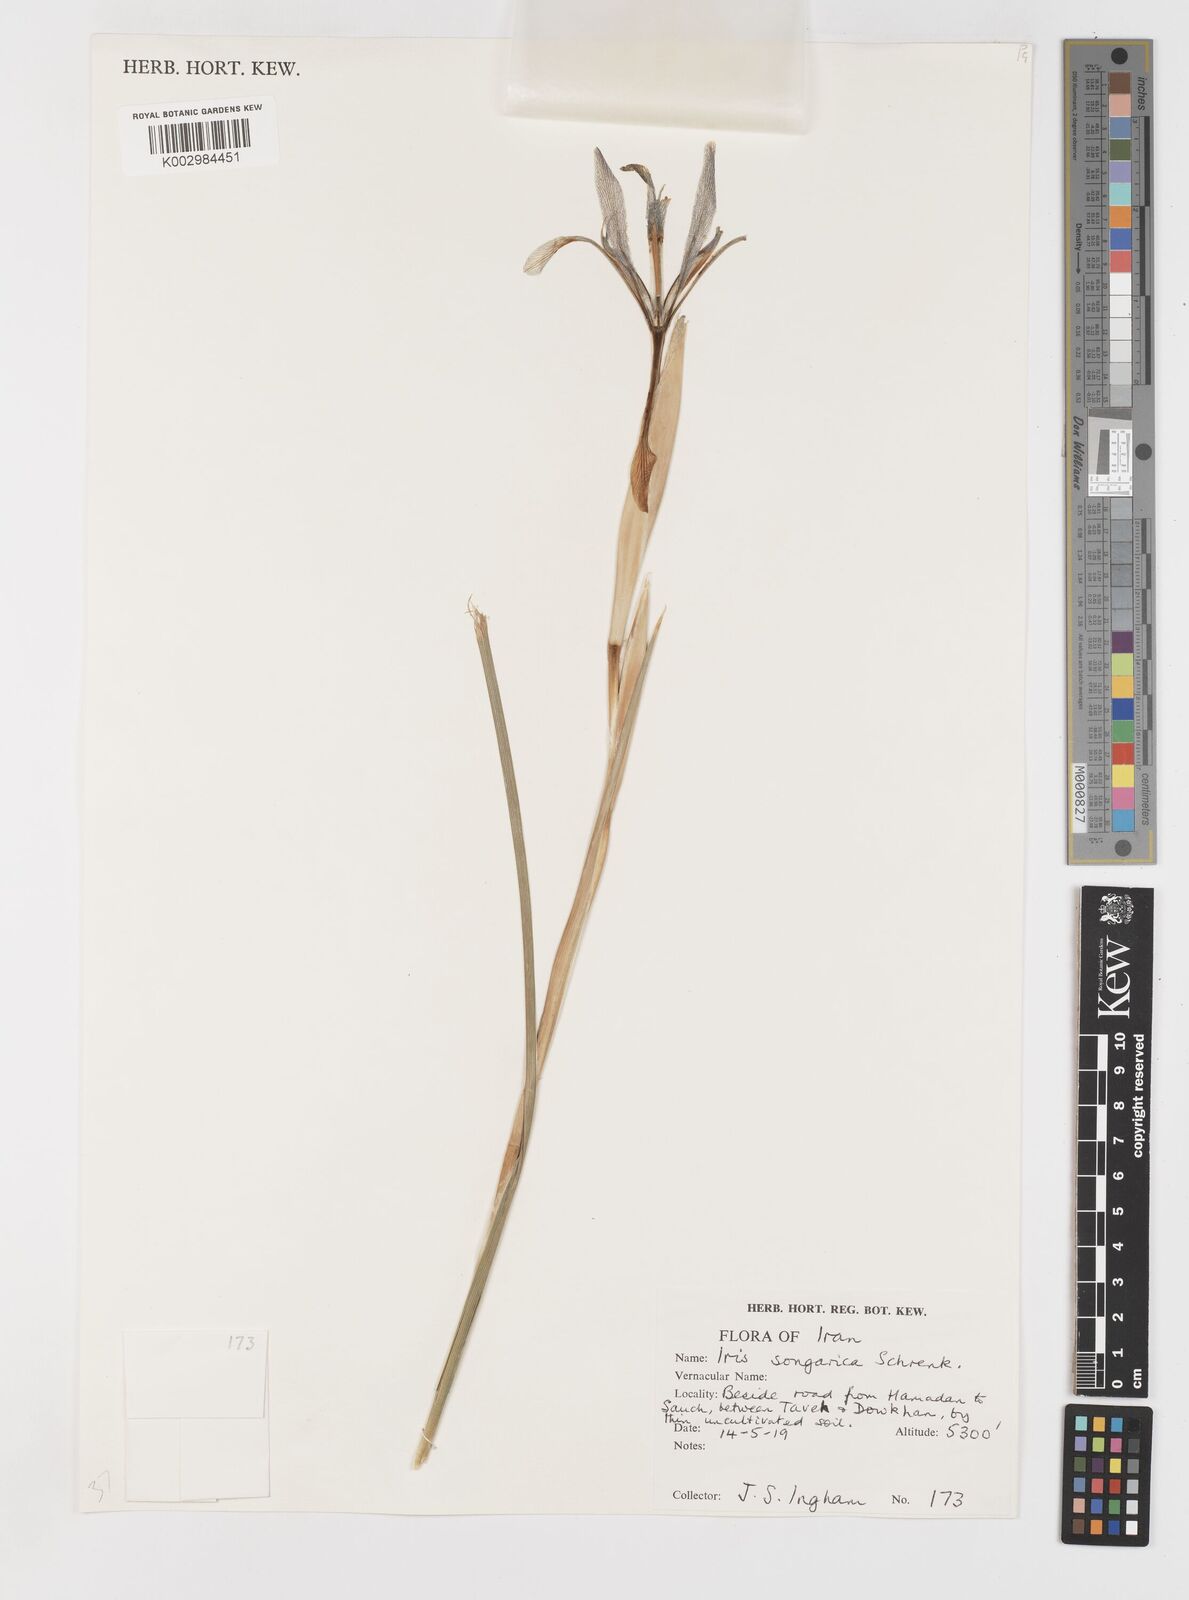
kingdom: Plantae
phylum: Tracheophyta
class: Liliopsida
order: Asparagales
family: Iridaceae
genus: Iris
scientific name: Iris songarica
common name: Songar iris
